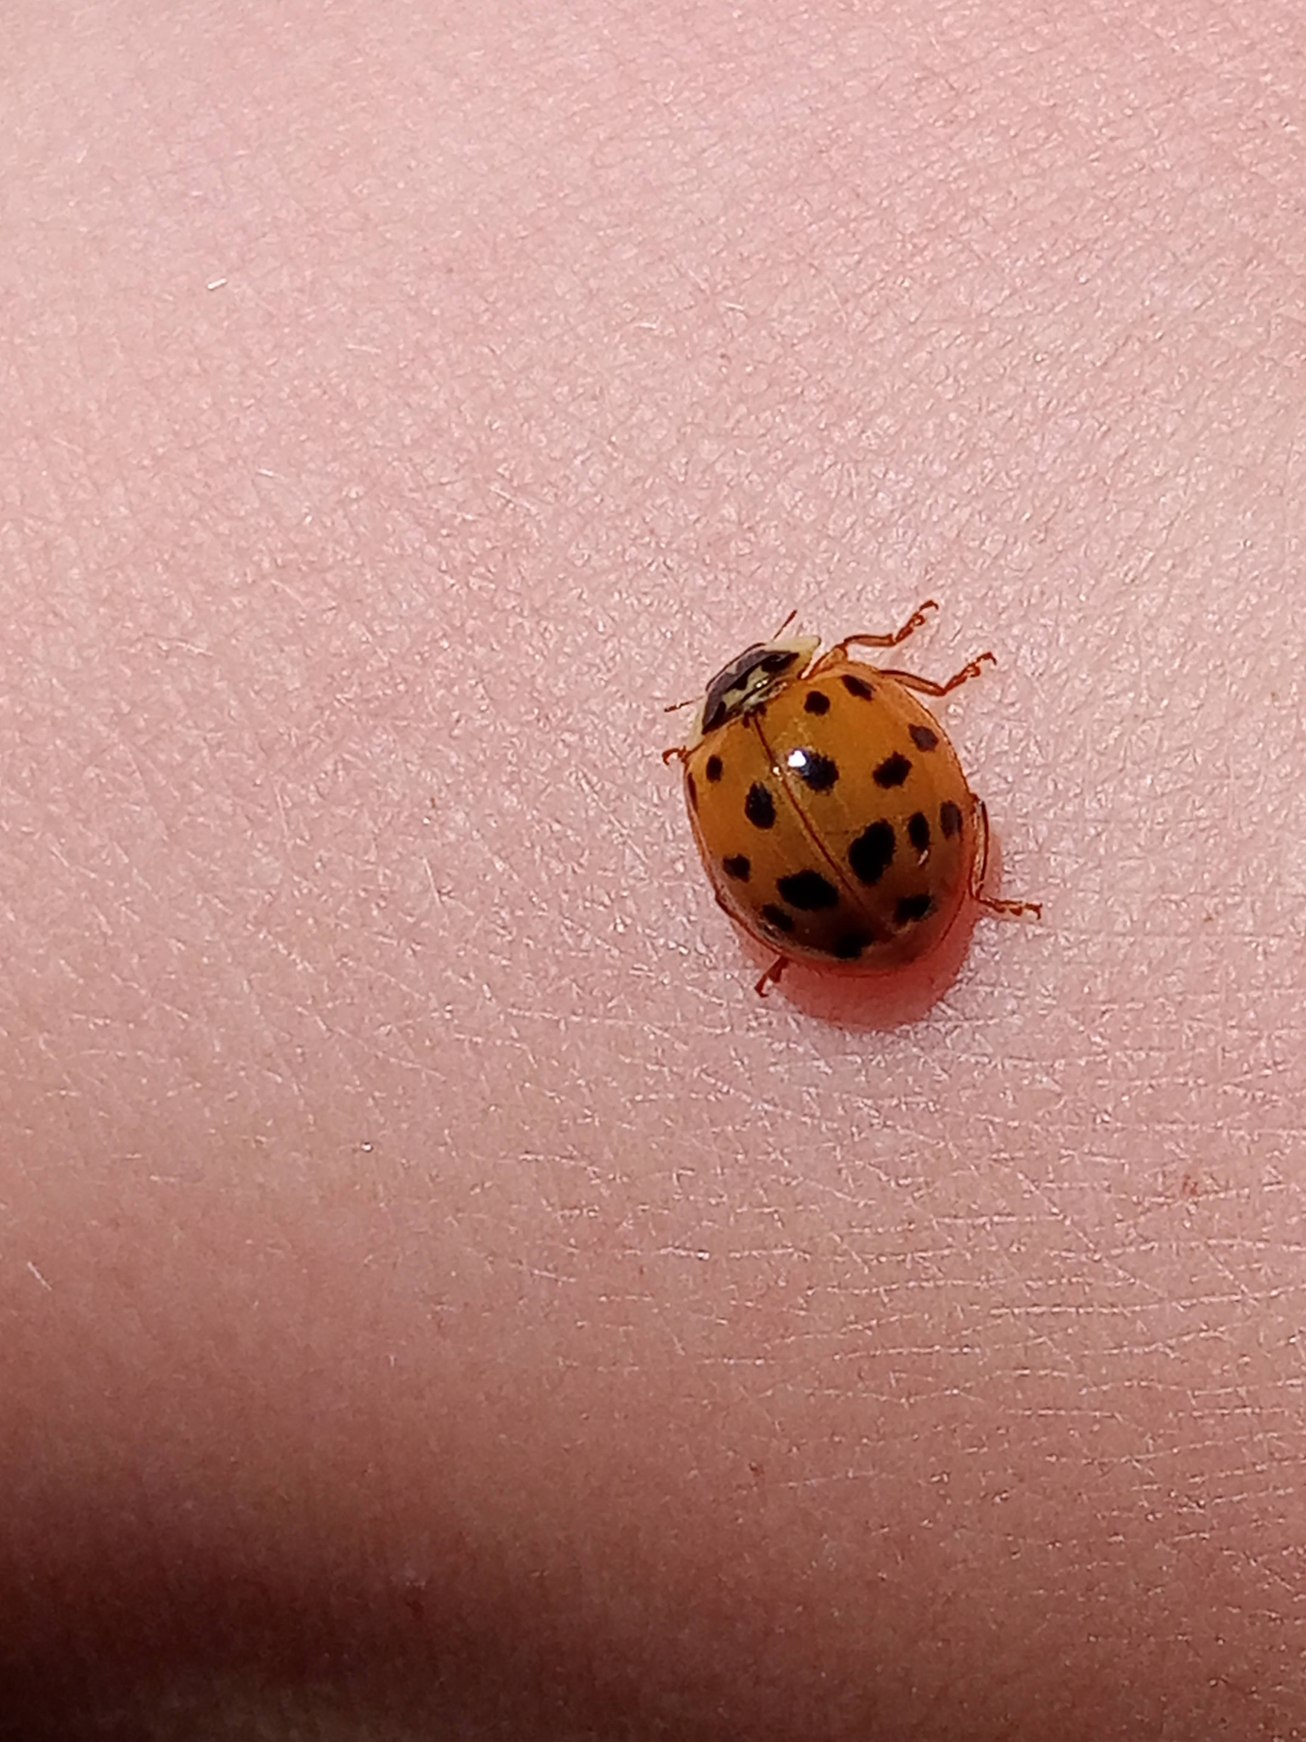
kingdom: Animalia
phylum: Arthropoda
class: Insecta
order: Coleoptera
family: Coccinellidae
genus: Harmonia
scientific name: Harmonia axyridis
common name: Harlekinmariehøne
